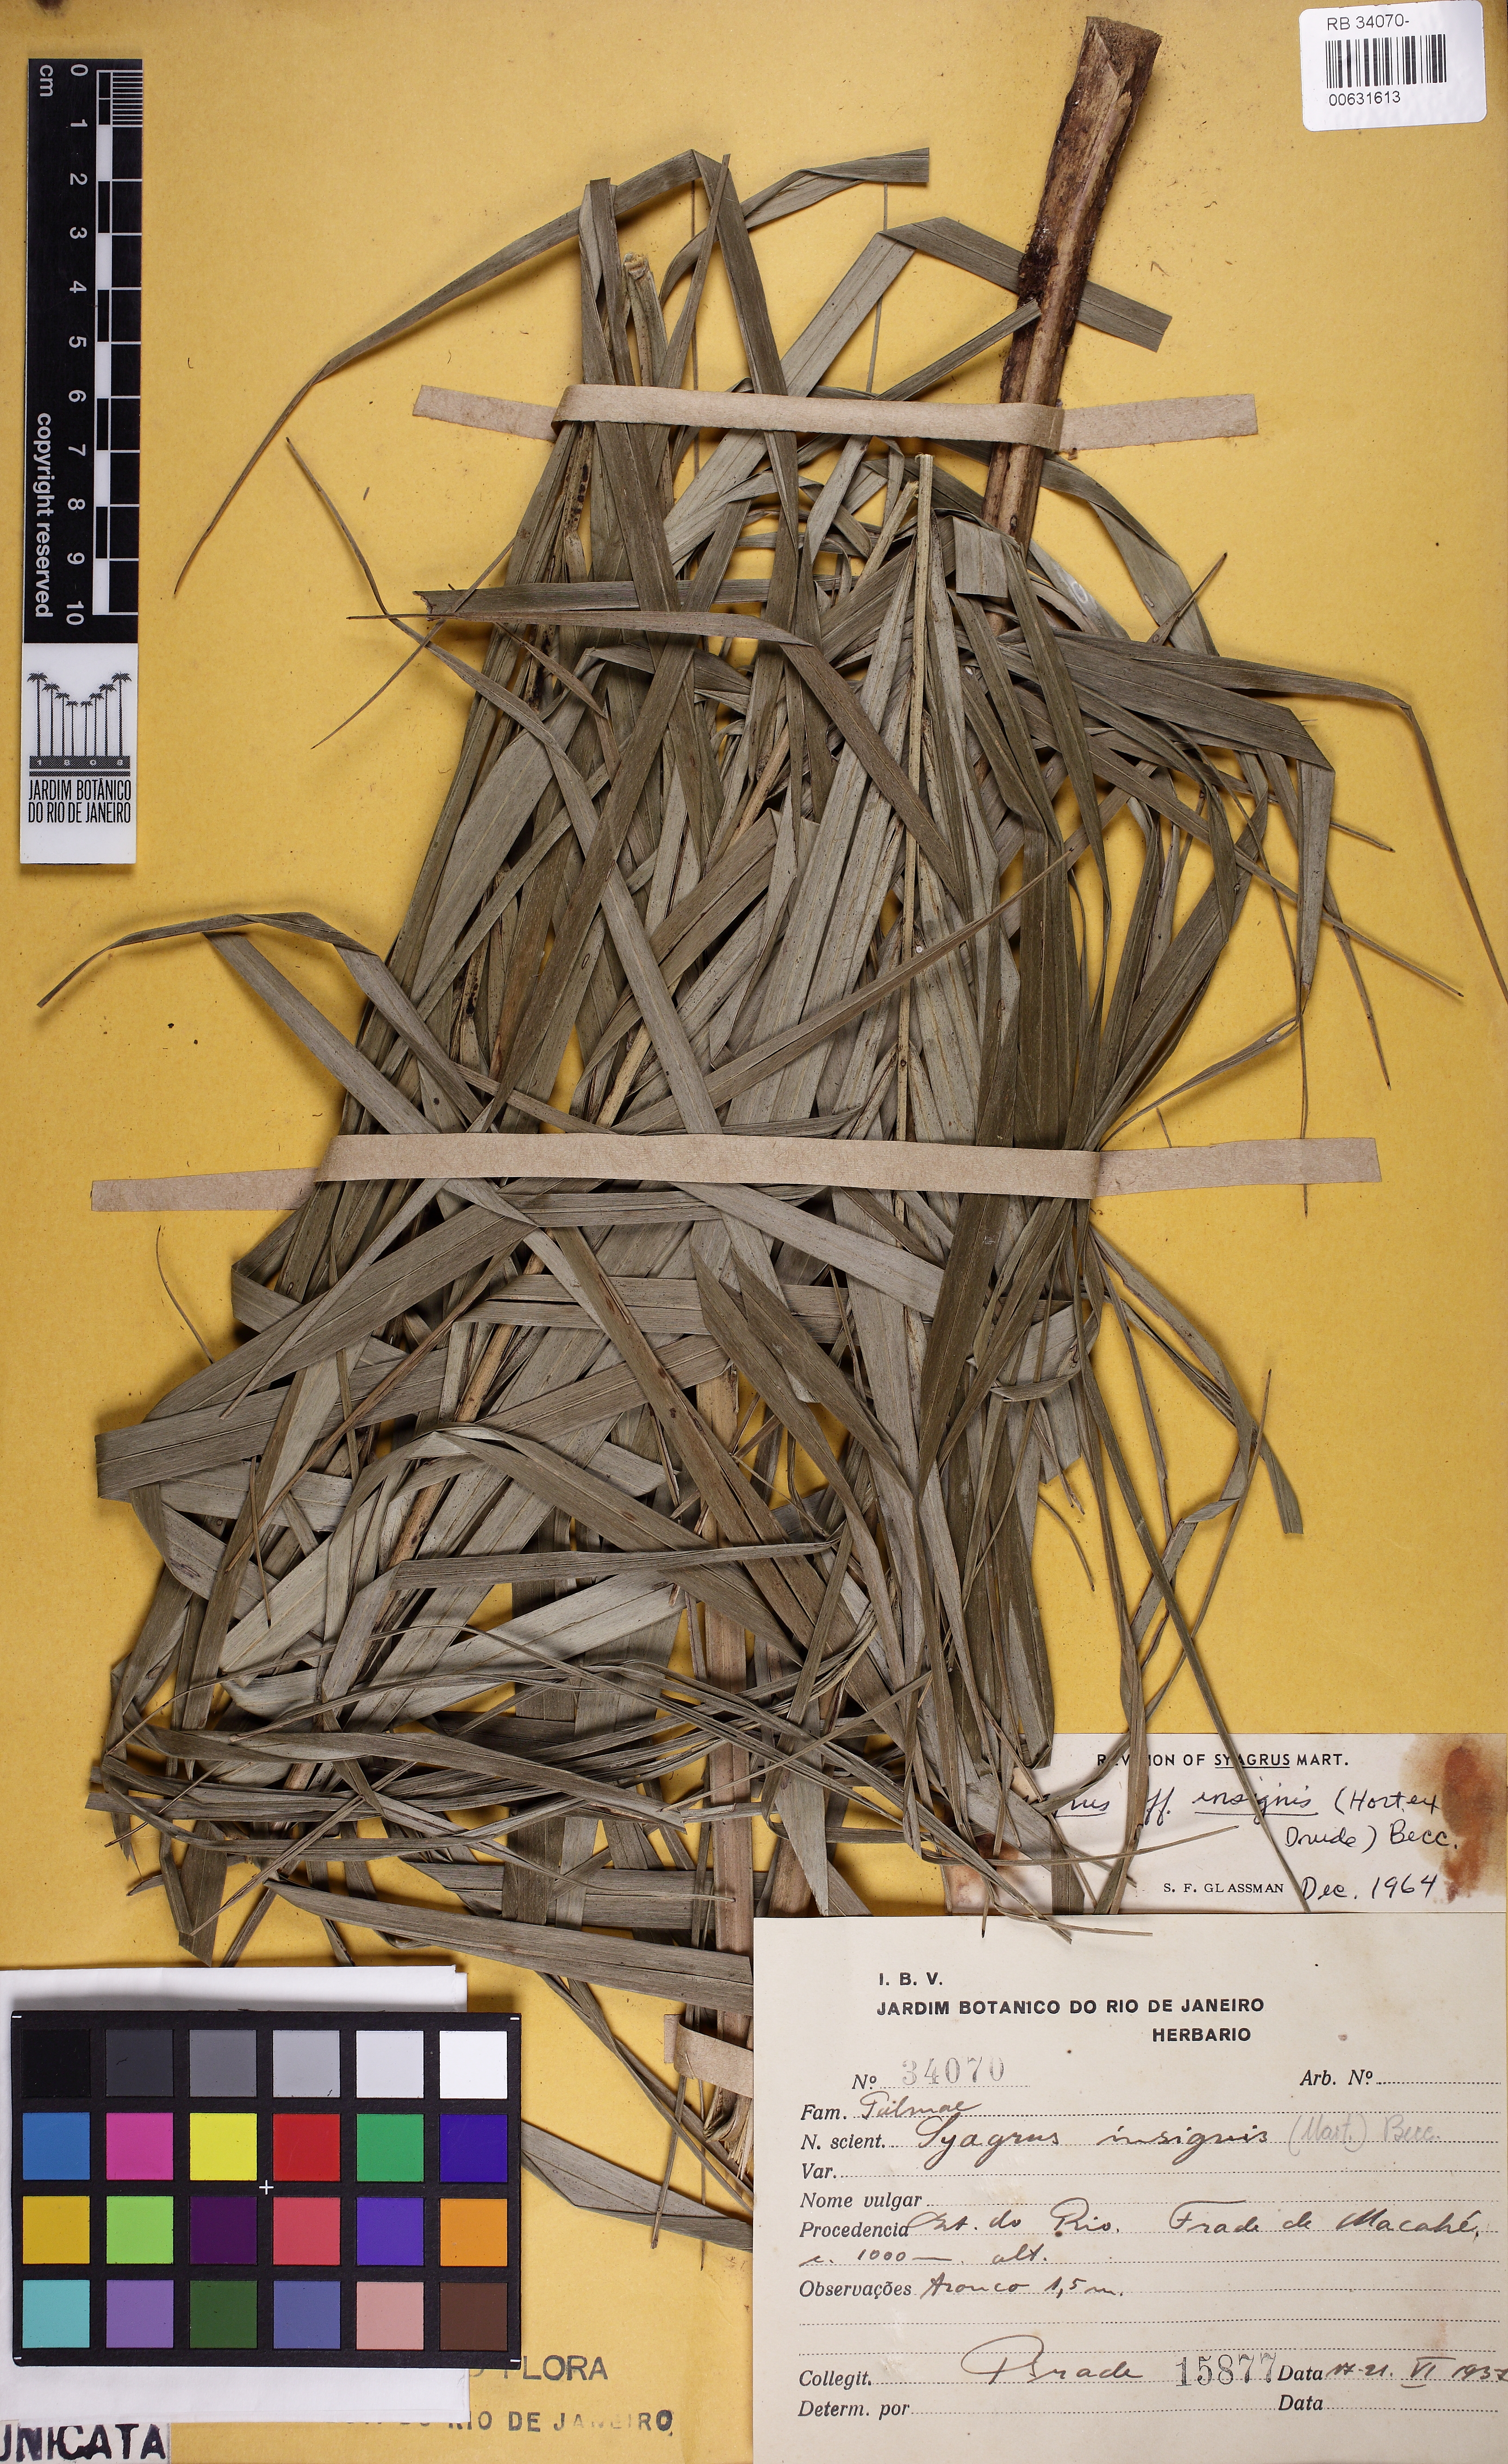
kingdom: Plantae
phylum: Tracheophyta
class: Liliopsida
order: Arecales
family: Arecaceae
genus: Syagrus
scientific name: Syagrus insignis
